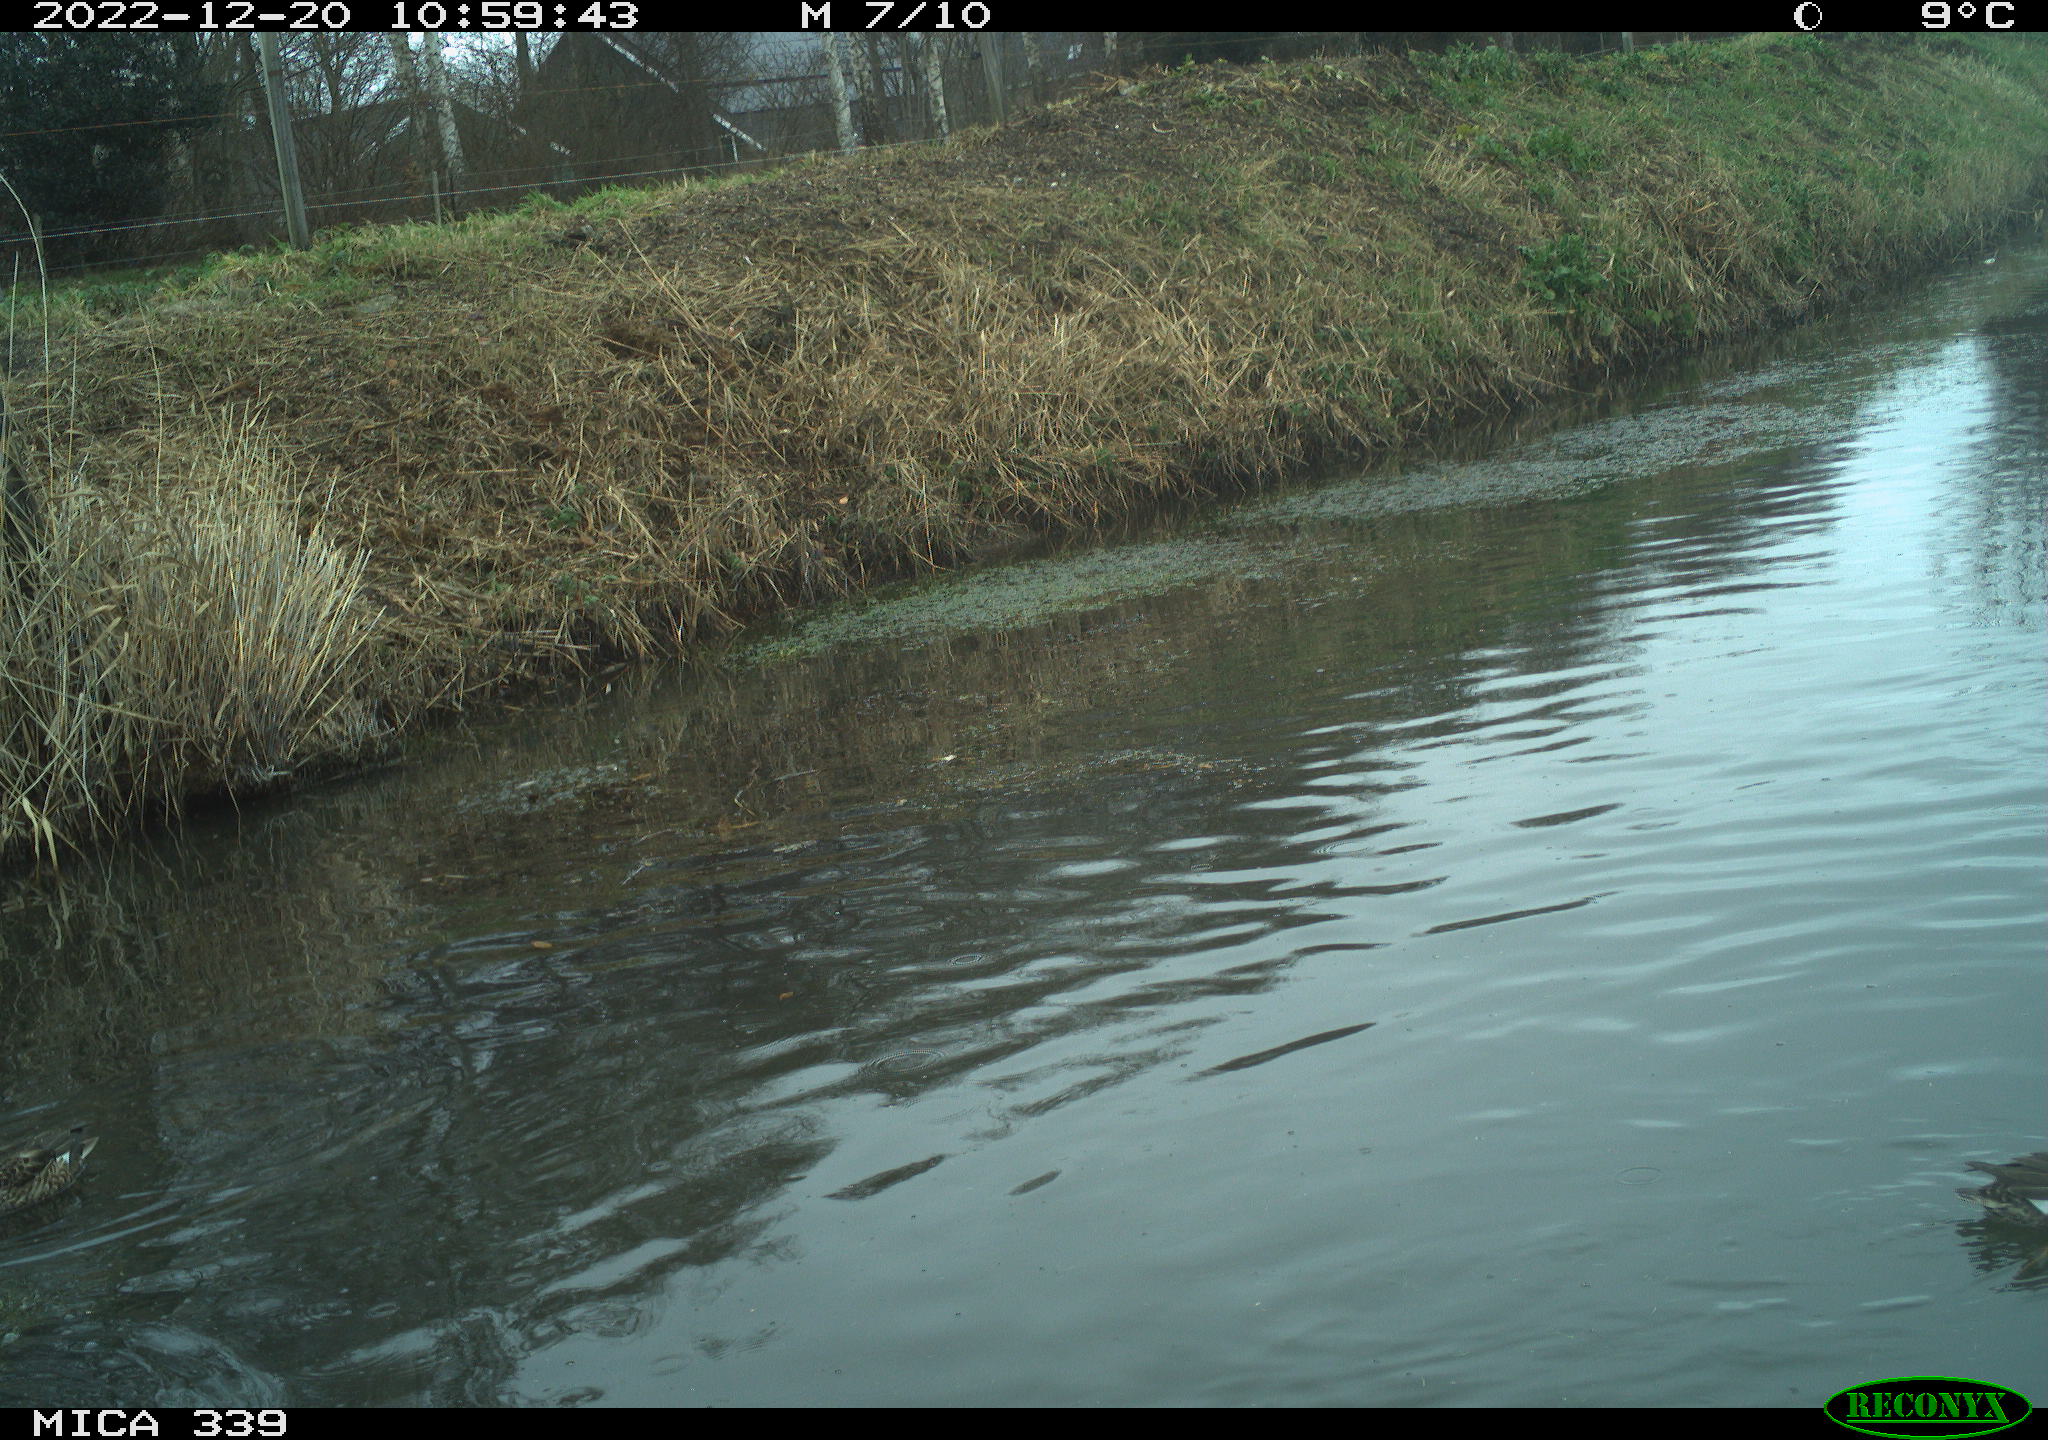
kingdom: Animalia
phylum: Chordata
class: Aves
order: Anseriformes
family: Anatidae
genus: Anas
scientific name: Anas
